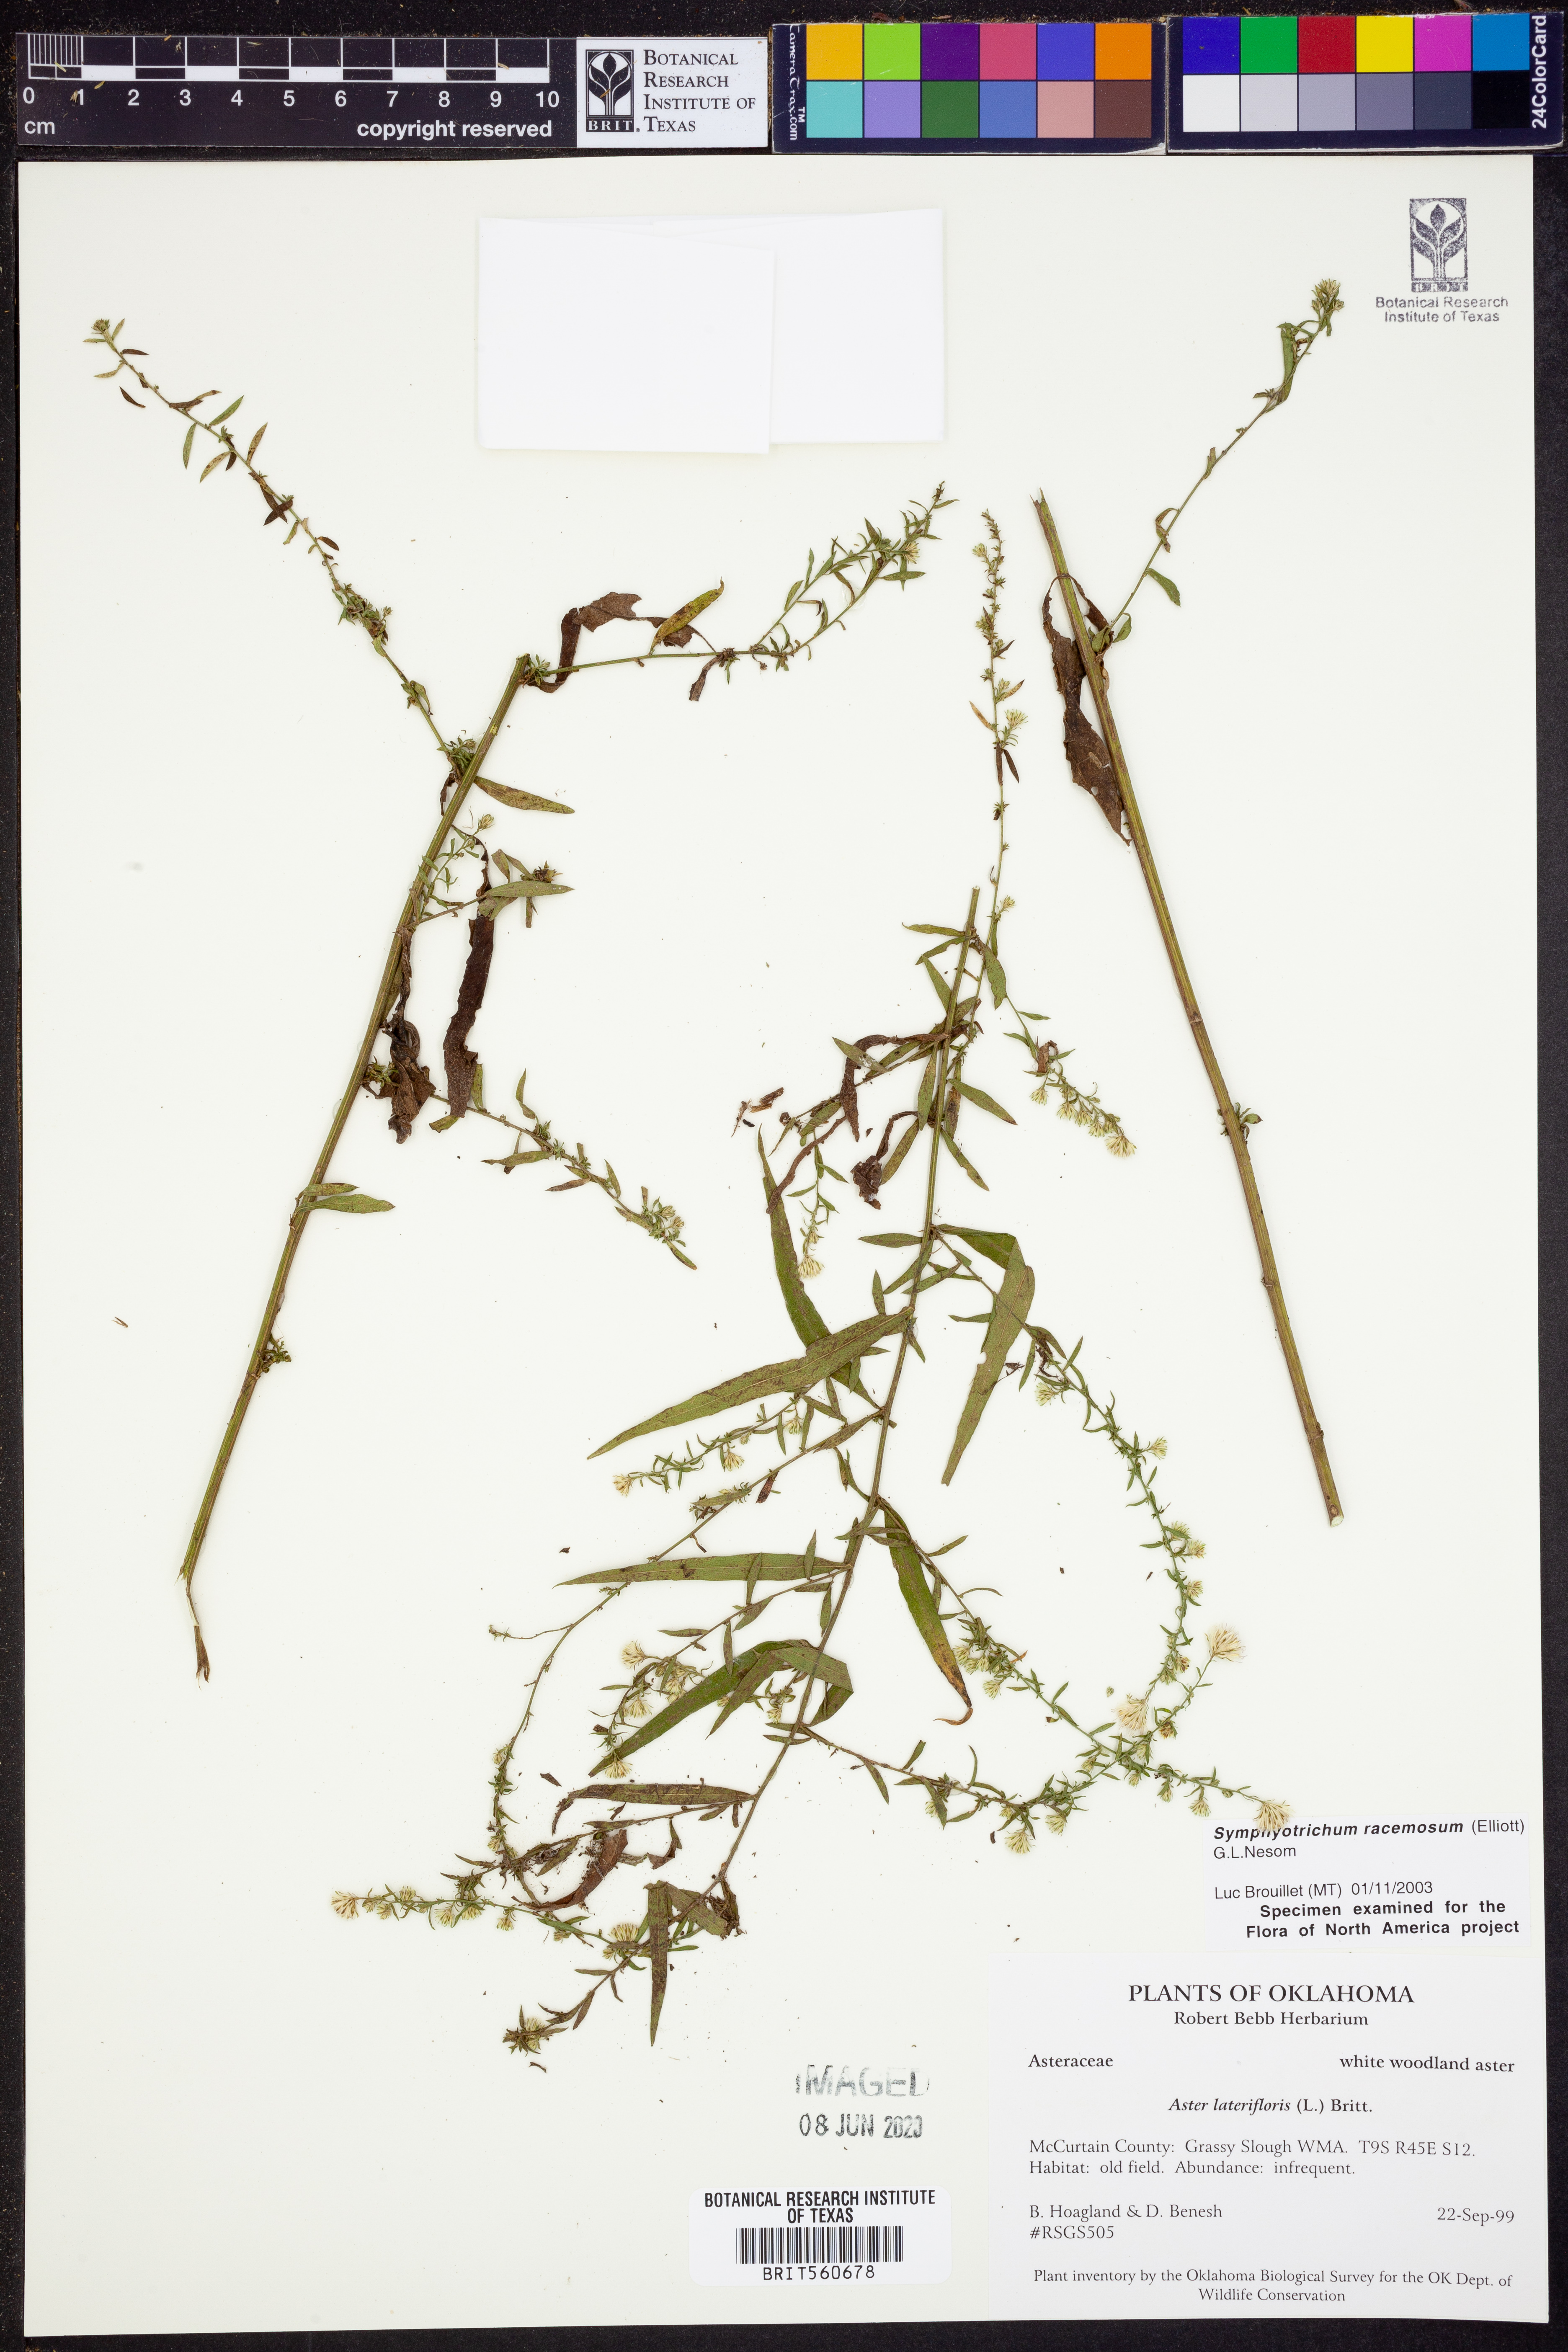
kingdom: Plantae
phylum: Tracheophyta
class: Magnoliopsida
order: Asterales
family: Asteraceae
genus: Symphyotrichum
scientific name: Symphyotrichum racemosum
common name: Small white aster
